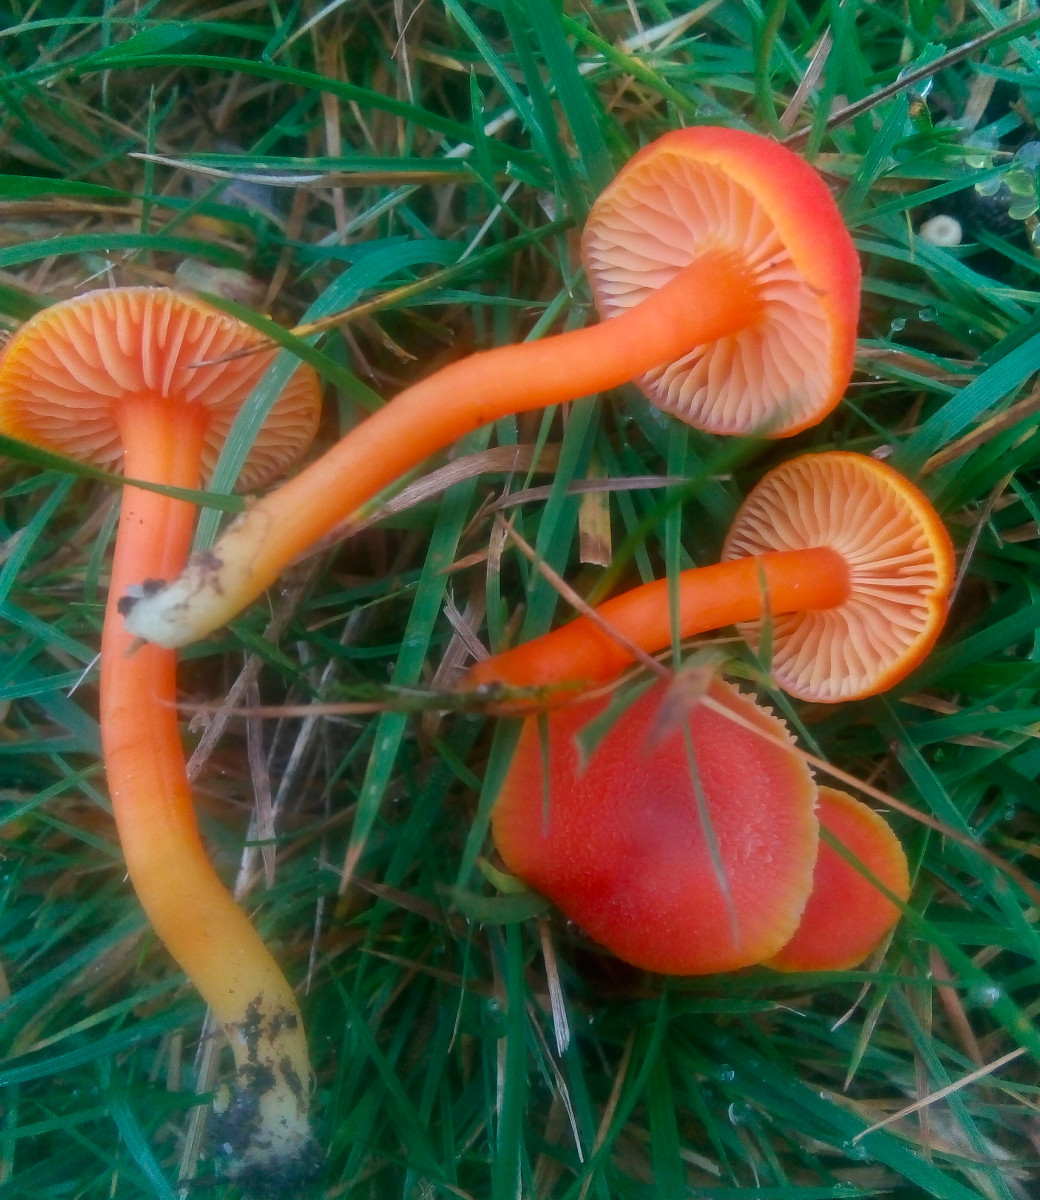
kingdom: Fungi
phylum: Basidiomycota
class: Agaricomycetes
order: Agaricales
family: Hygrophoraceae
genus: Hygrocybe
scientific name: Hygrocybe miniata
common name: mønje-vokshat
